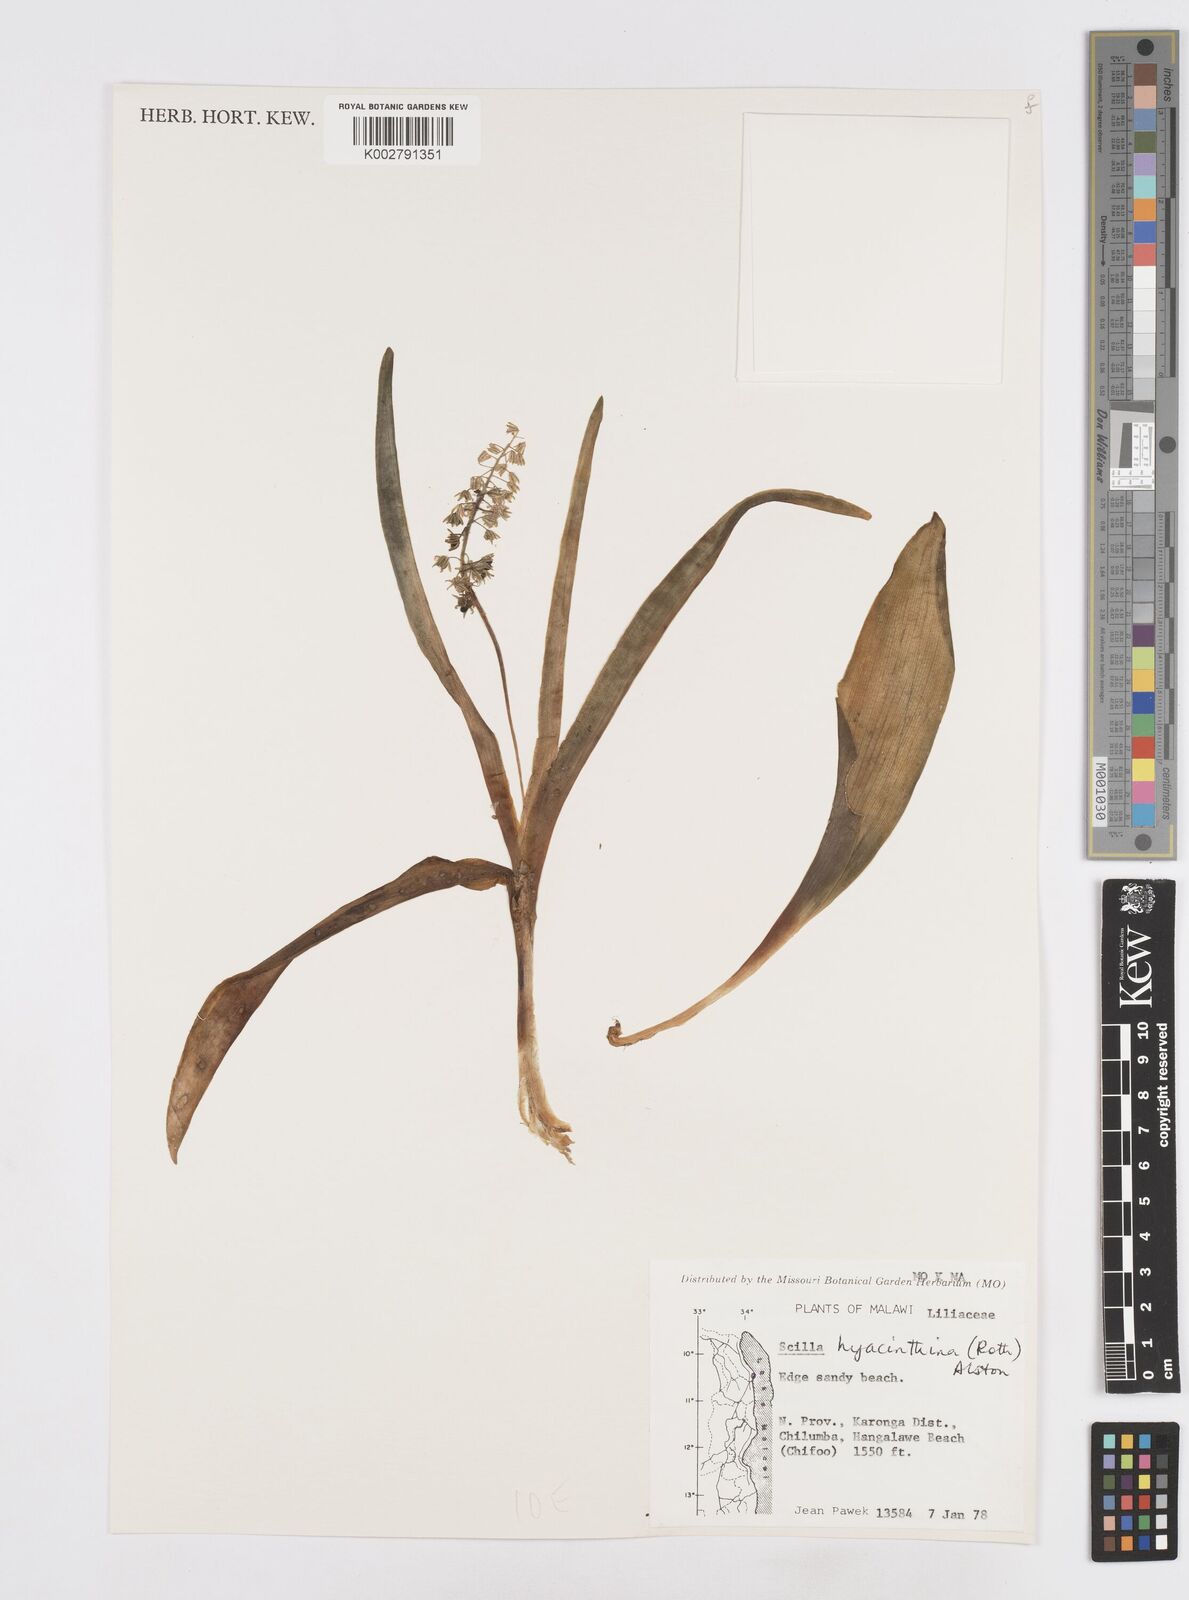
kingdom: Plantae
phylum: Tracheophyta
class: Liliopsida
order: Asparagales
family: Asparagaceae
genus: Ledebouria
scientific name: Ledebouria revoluta
